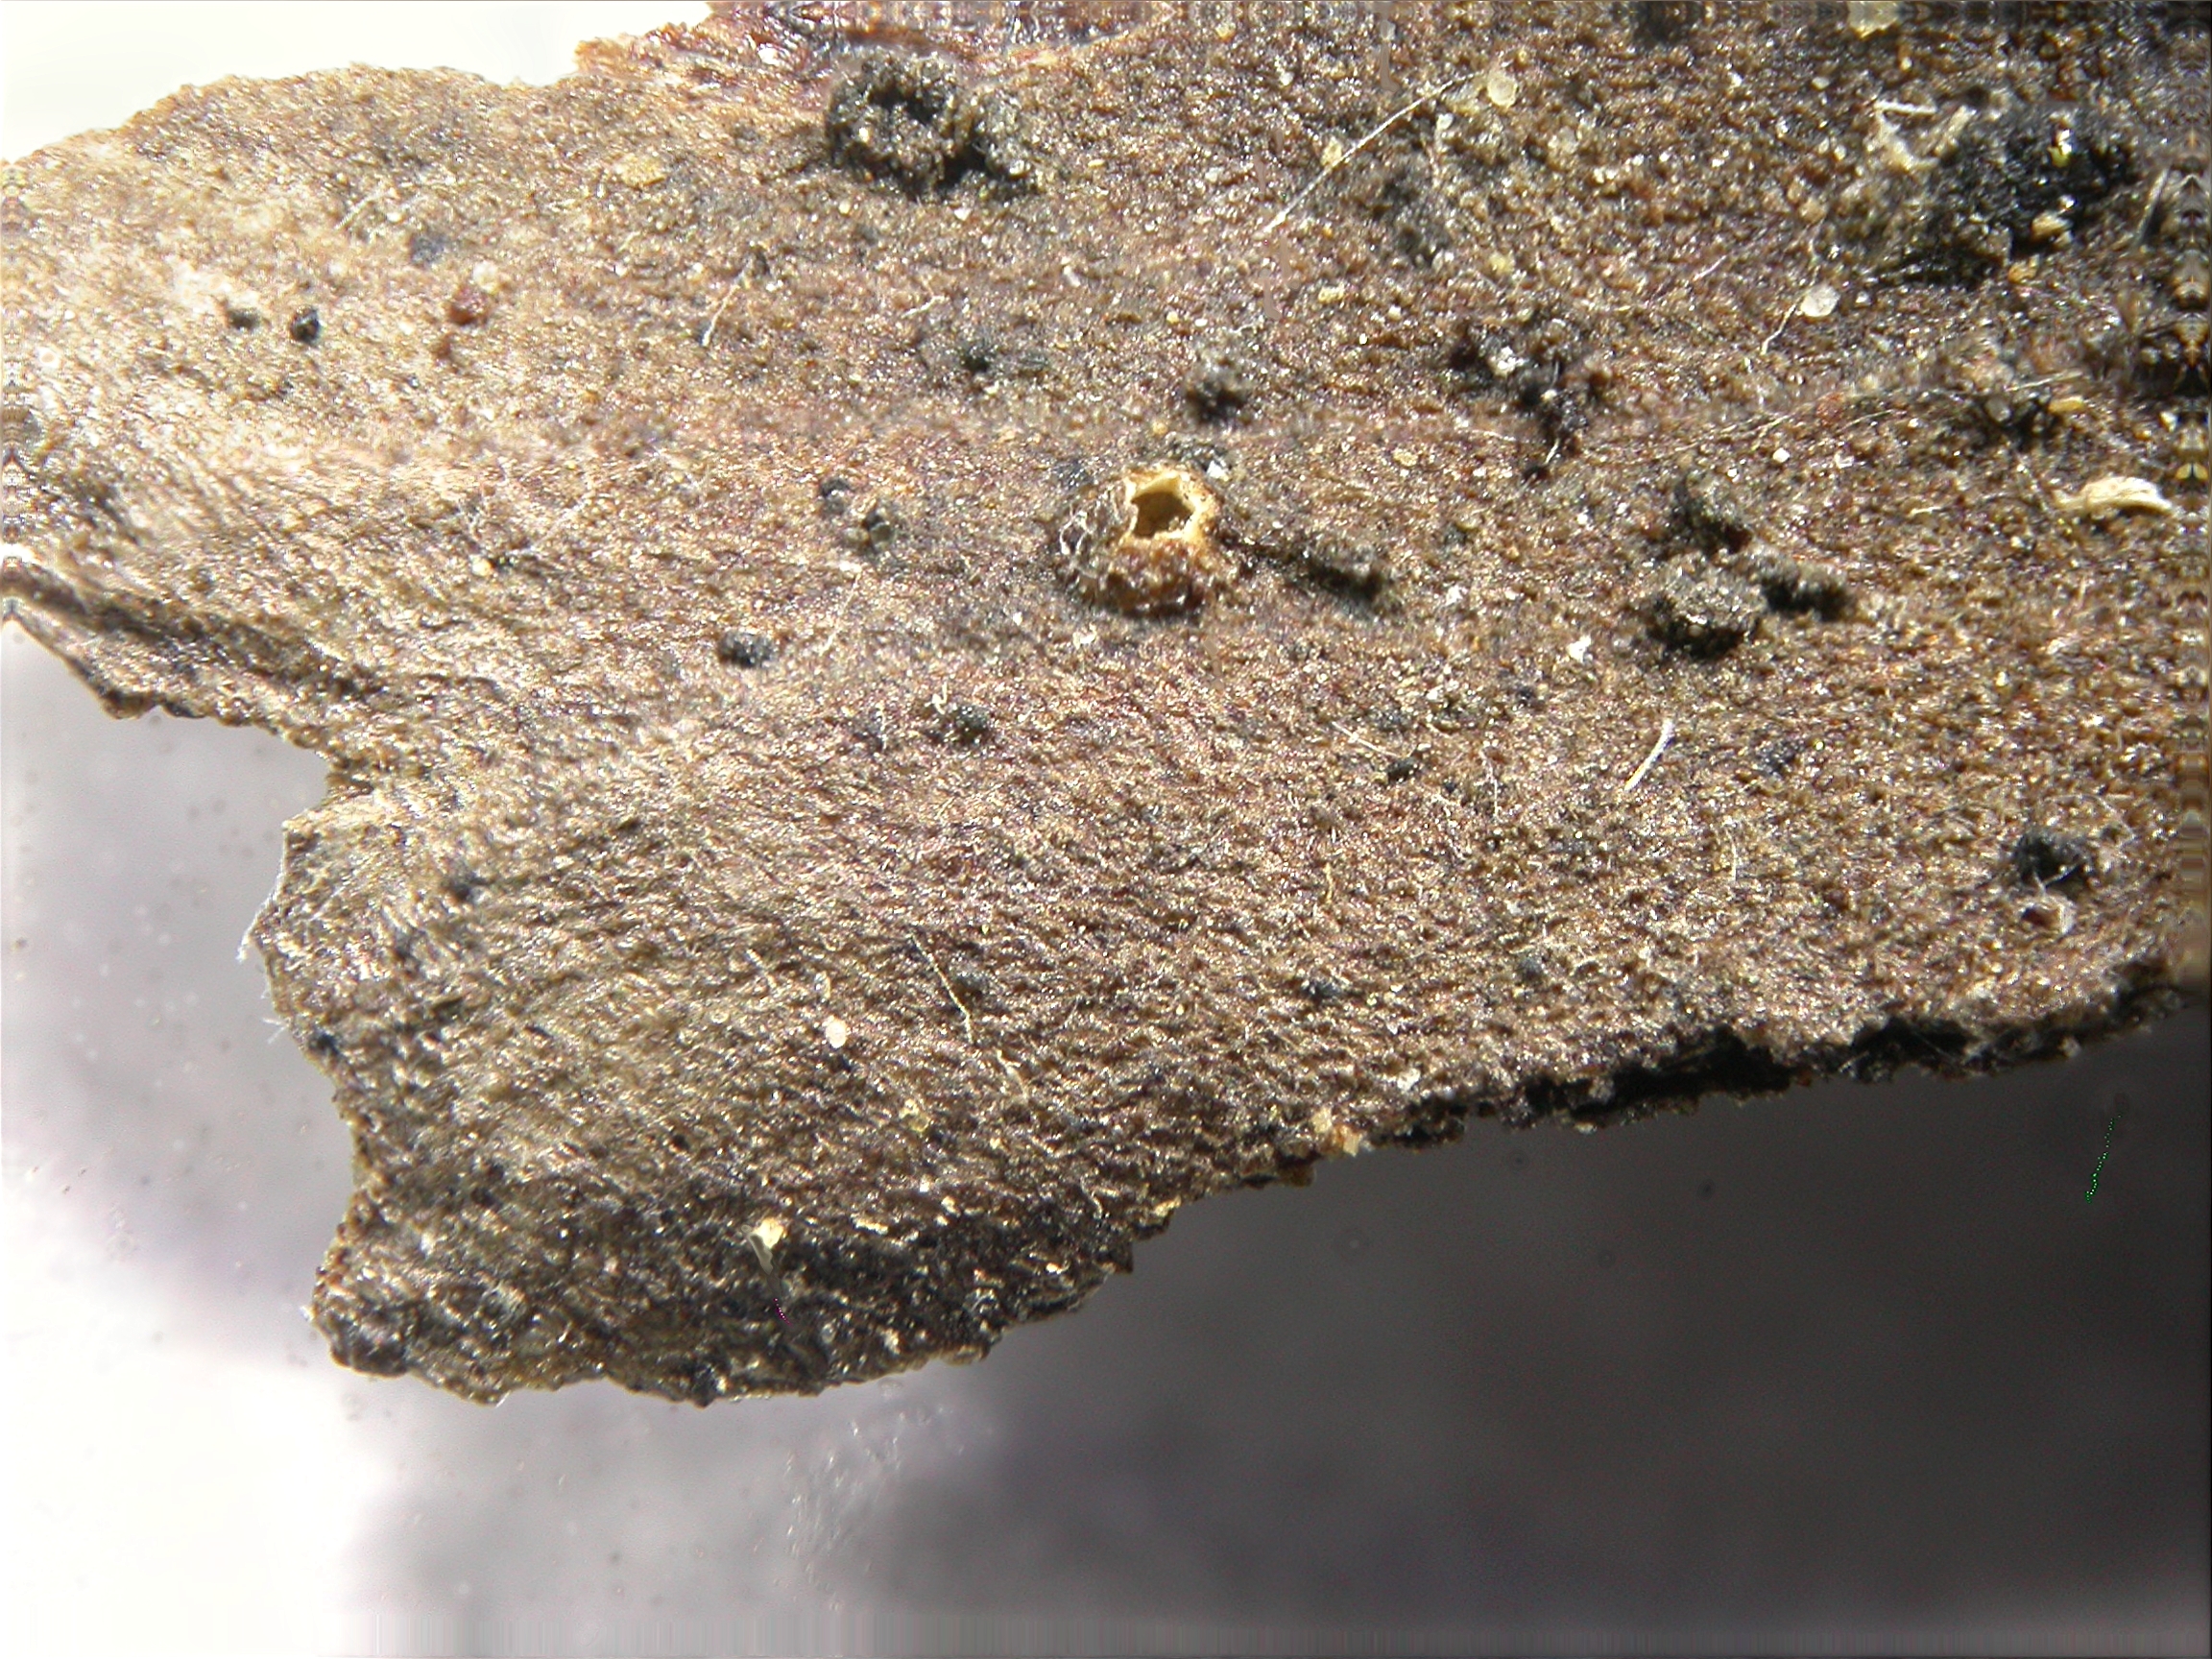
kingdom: Fungi
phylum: Ascomycota
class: Leotiomycetes
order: Rhytismatales
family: Rhytismataceae
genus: Propolidium
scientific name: Propolidium rehmianum
